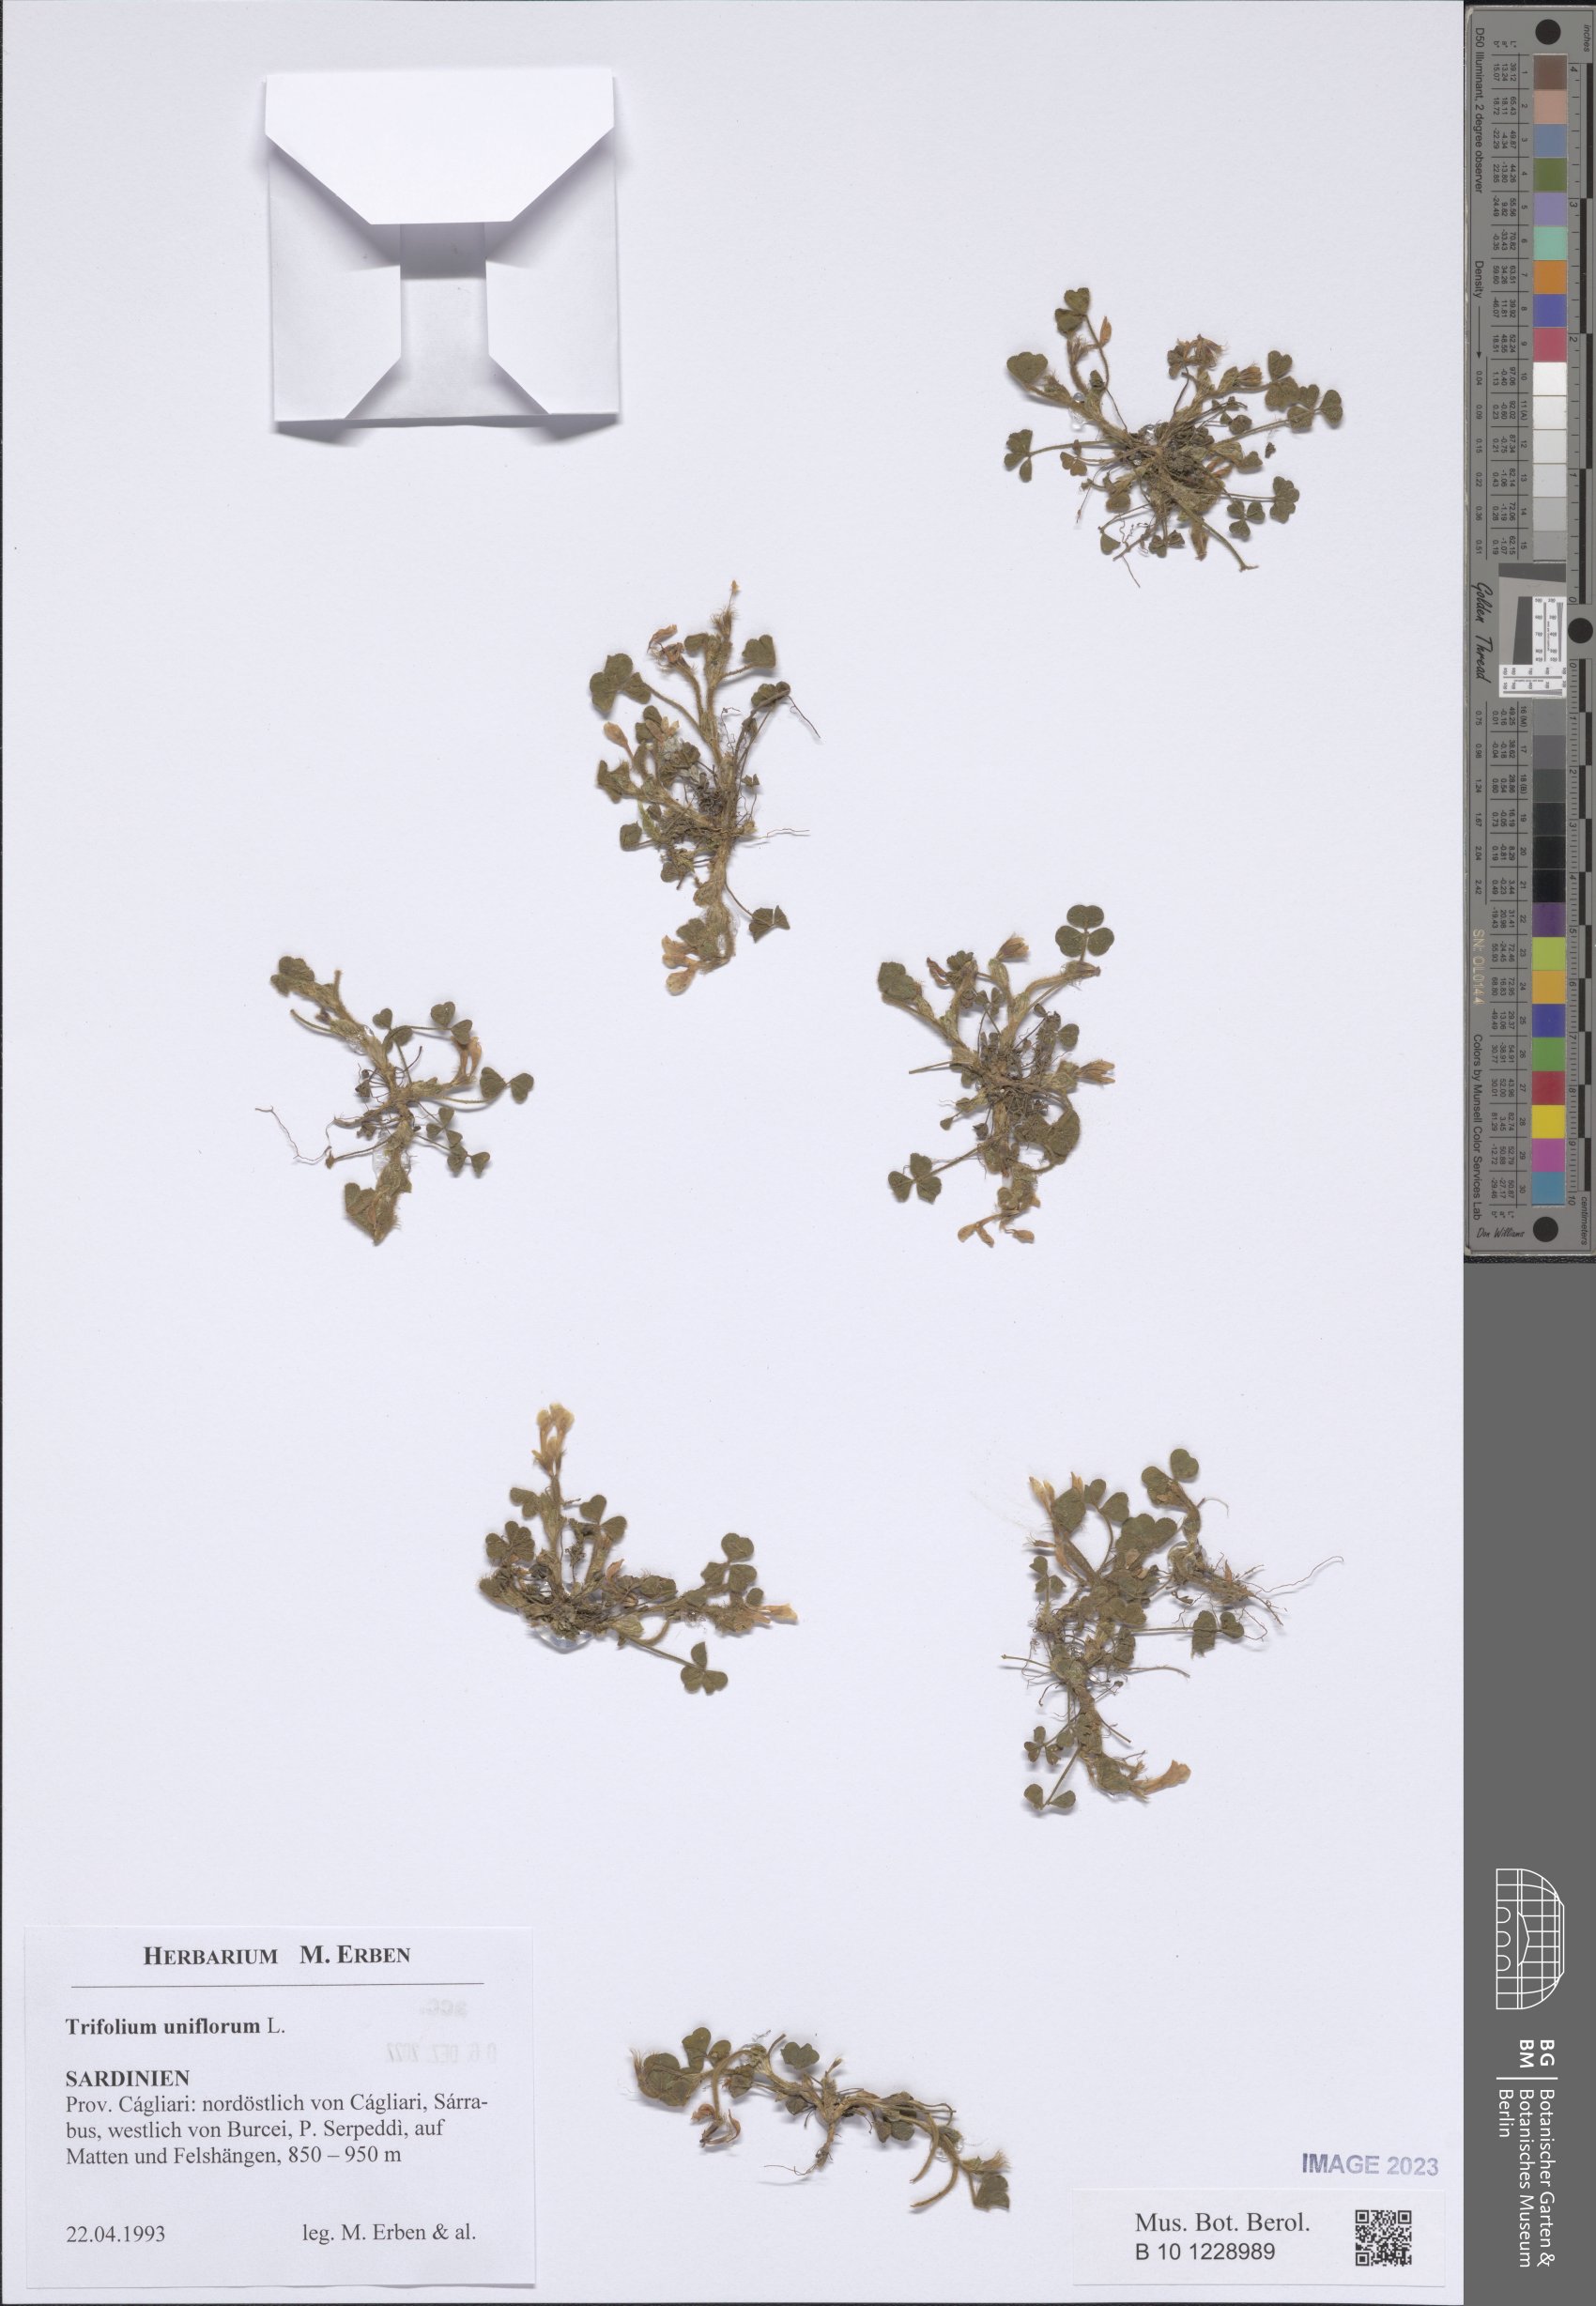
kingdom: Plantae
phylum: Tracheophyta
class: Magnoliopsida
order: Fabales
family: Fabaceae
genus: Trifolium
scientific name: Trifolium uniflorum
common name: One-flower clover
